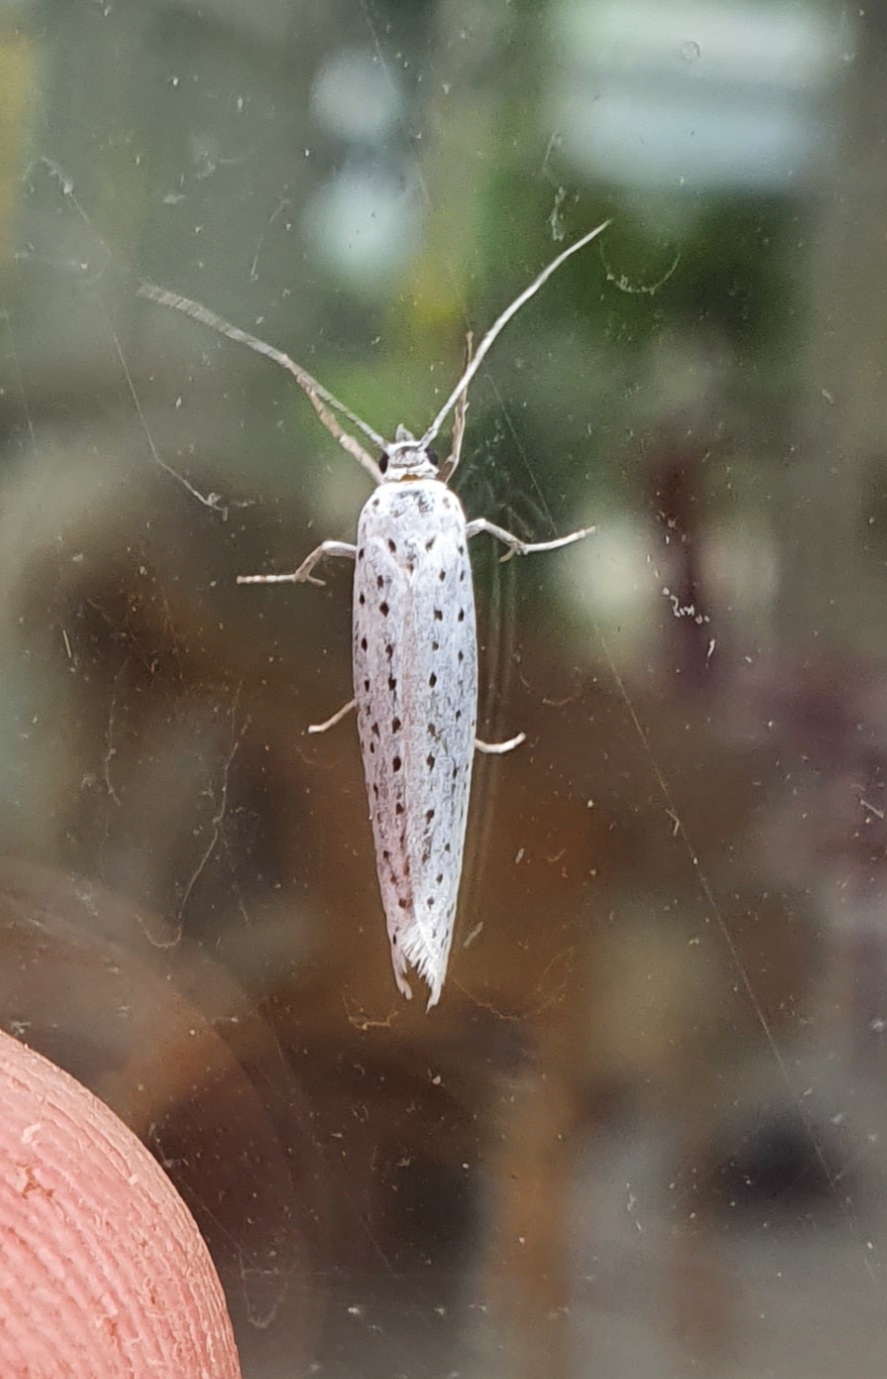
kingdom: Animalia
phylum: Arthropoda
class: Insecta
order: Lepidoptera
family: Yponomeutidae
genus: Yponomeuta
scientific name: Yponomeuta evonymella
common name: Hægspindemøl
